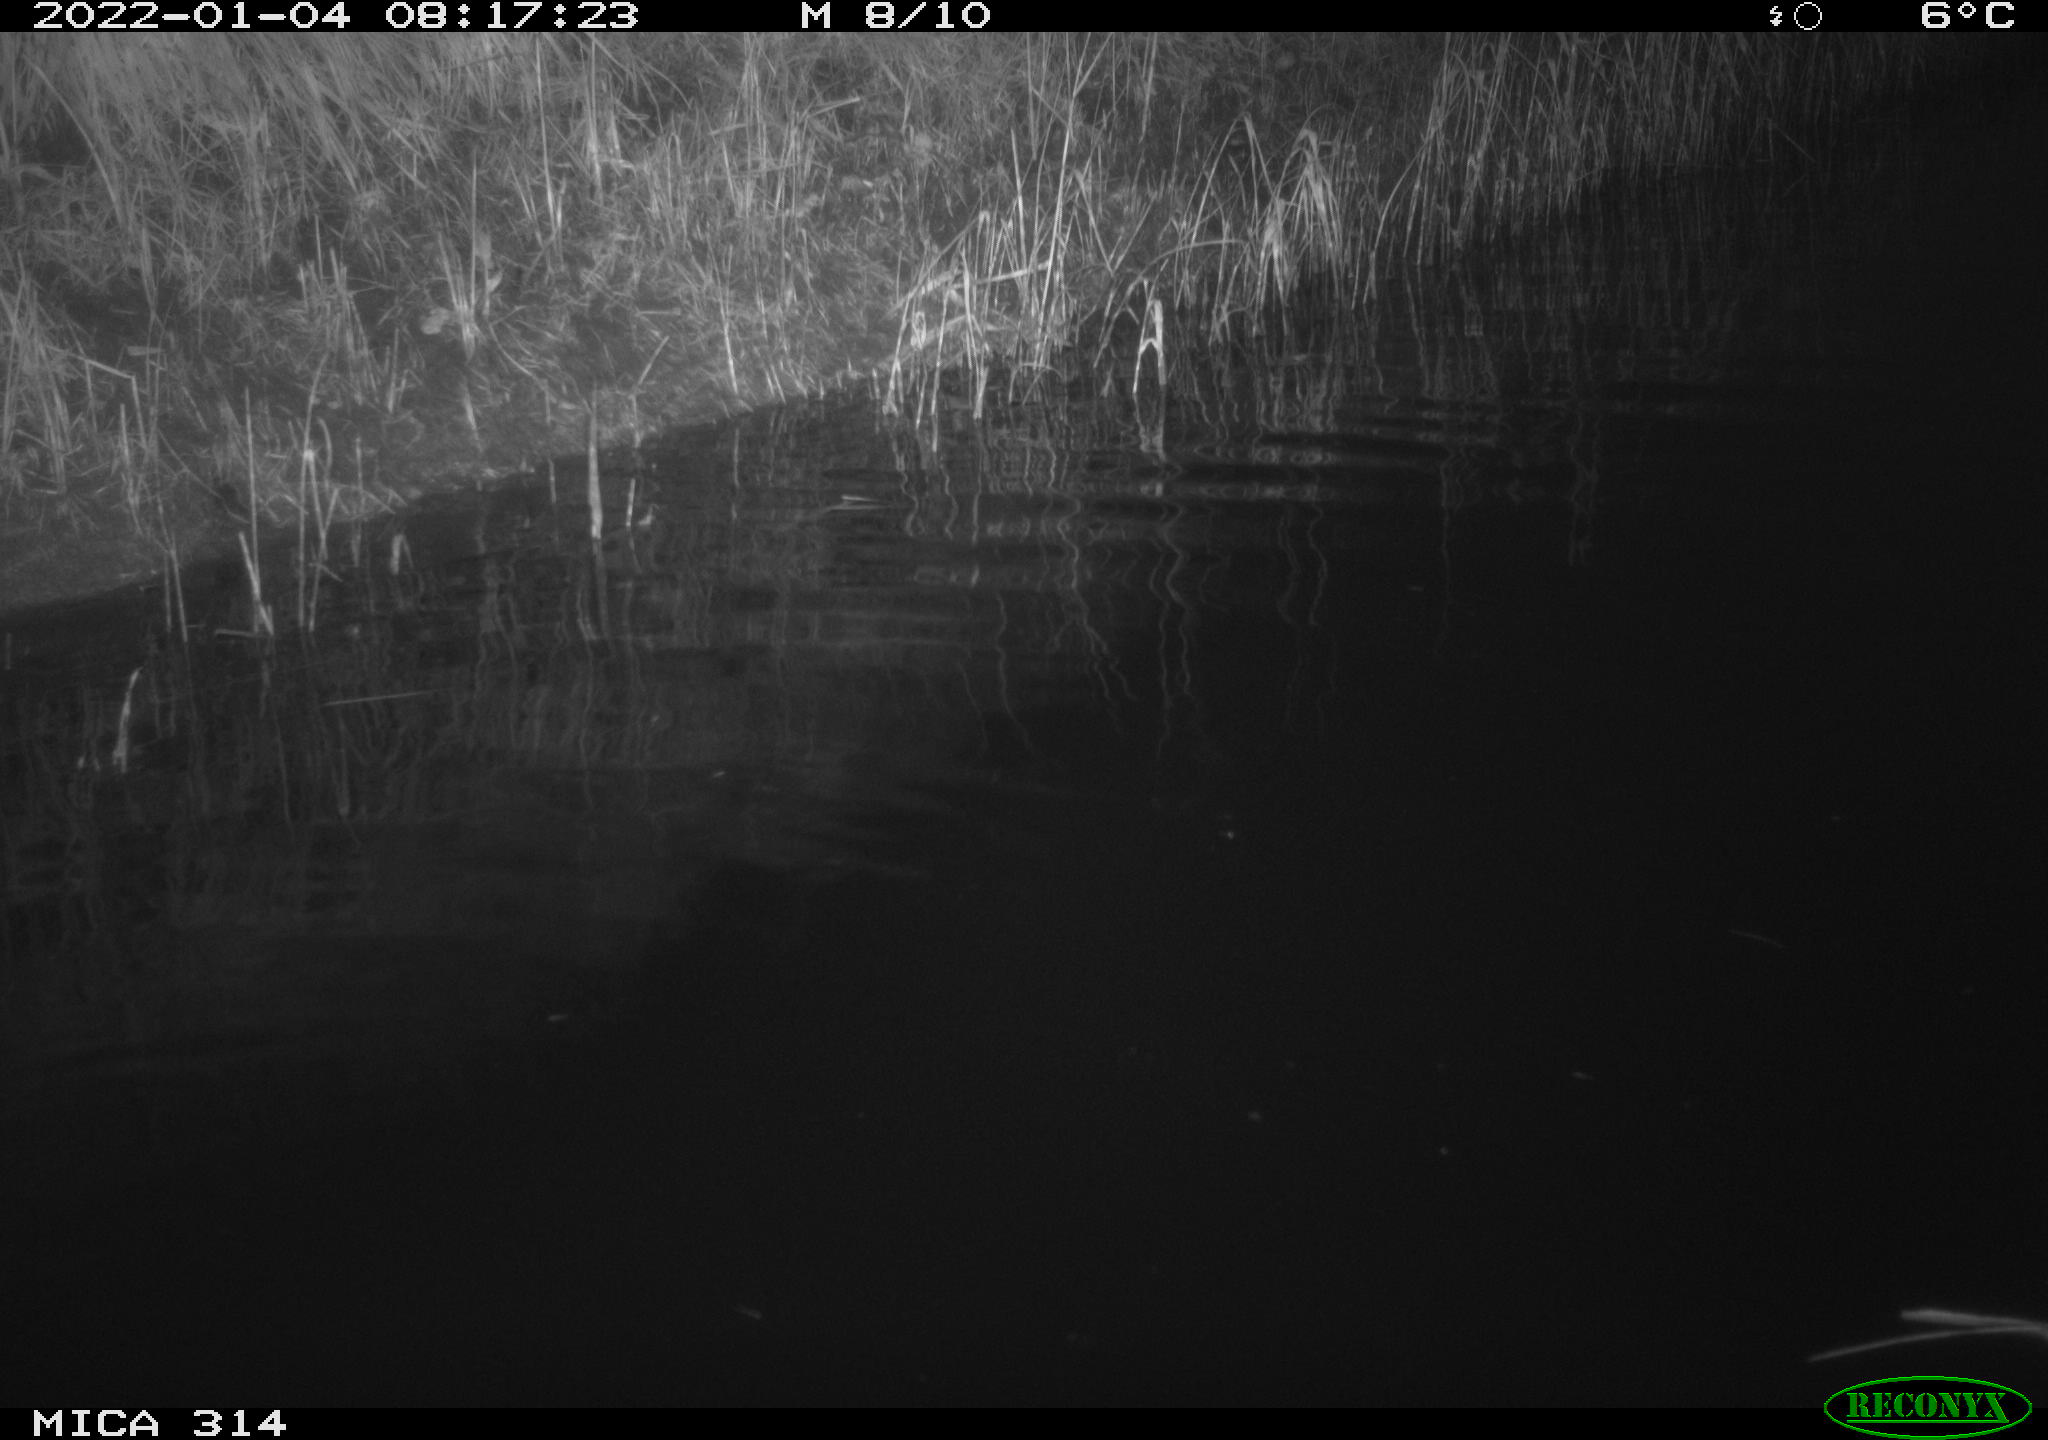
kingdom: Animalia
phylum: Chordata
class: Aves
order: Gruiformes
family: Rallidae
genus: Gallinula
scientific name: Gallinula chloropus
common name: Common moorhen
